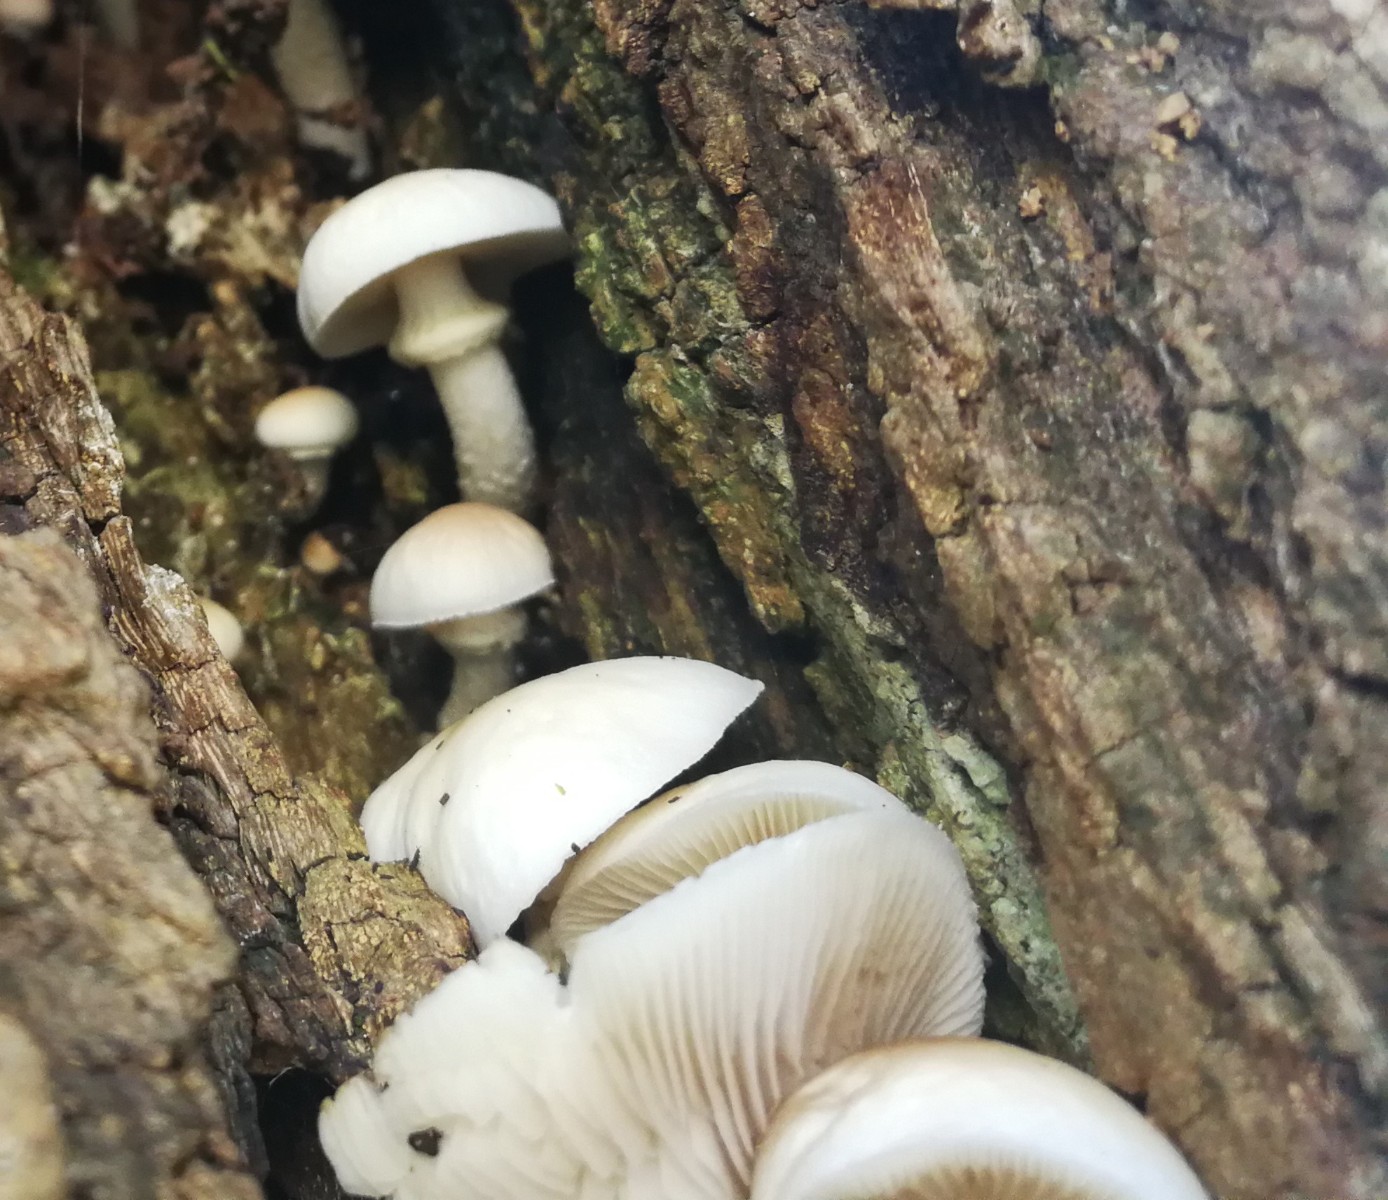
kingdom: Fungi
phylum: Basidiomycota
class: Agaricomycetes
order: Agaricales
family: Tubariaceae
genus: Cyclocybe
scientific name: Cyclocybe
